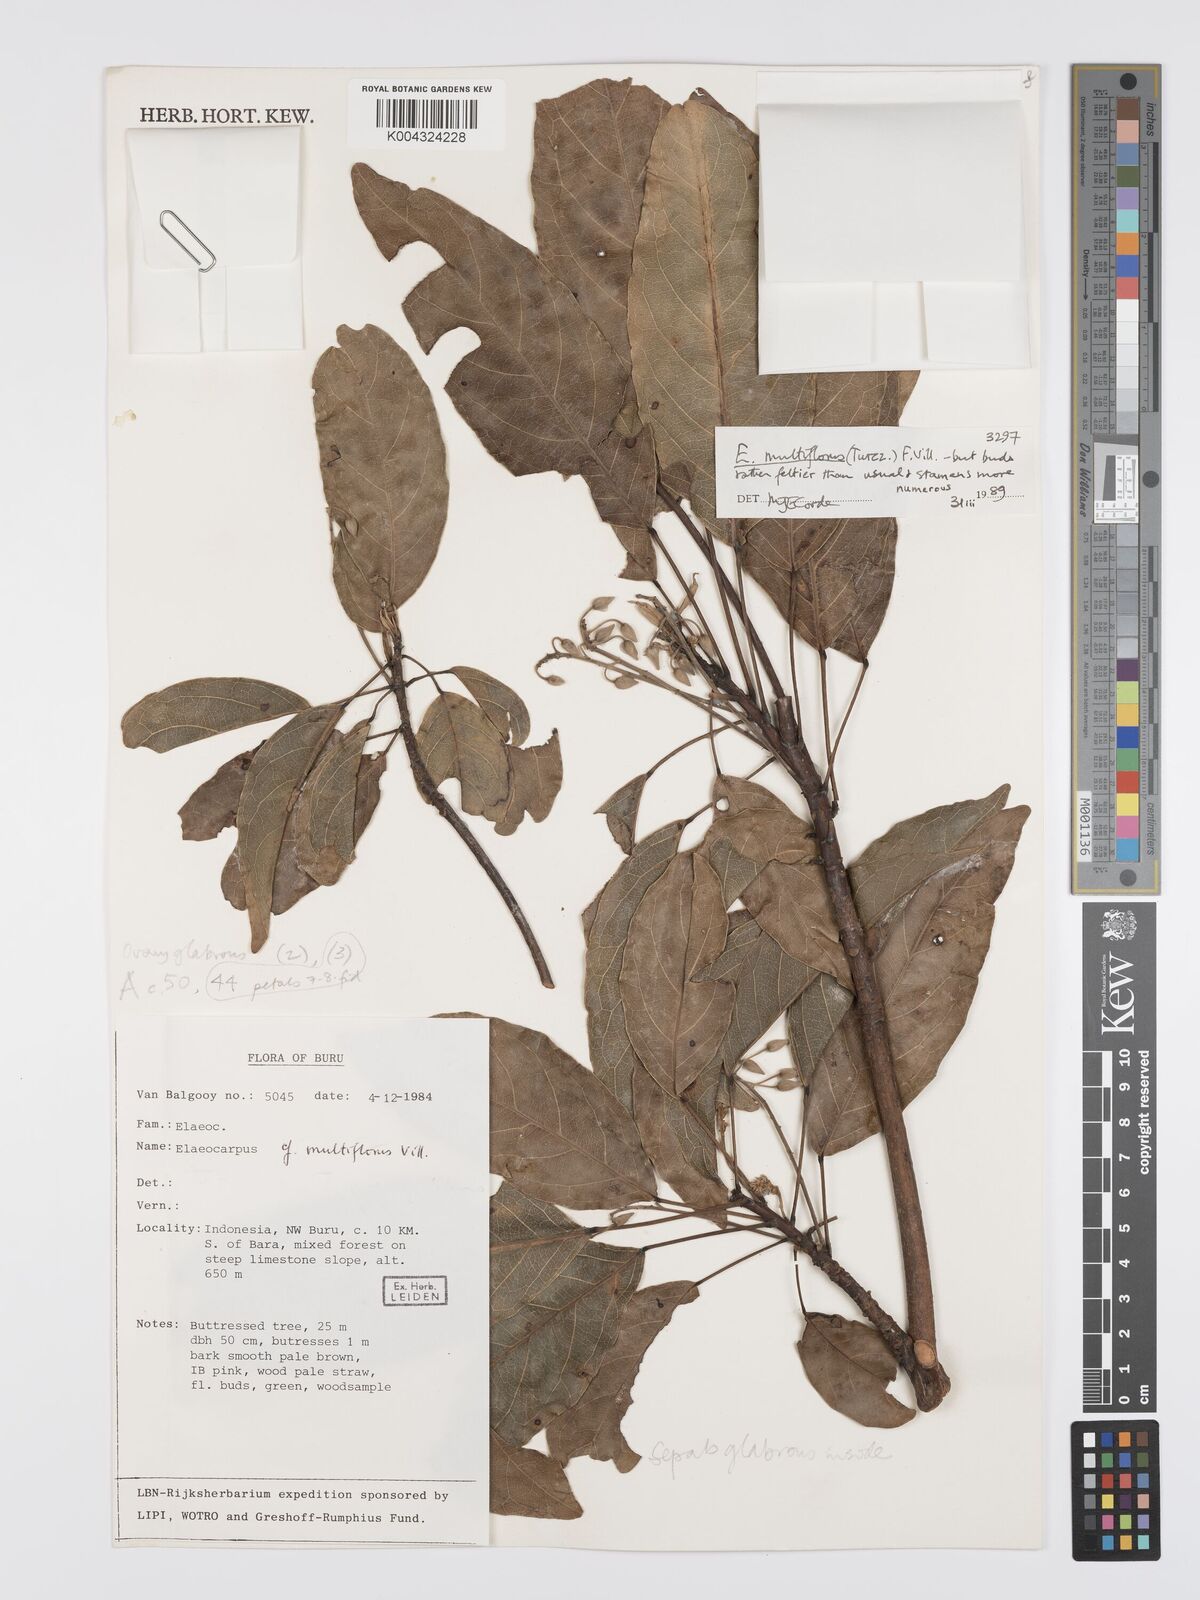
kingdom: Plantae
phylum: Tracheophyta
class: Magnoliopsida
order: Oxalidales
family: Elaeocarpaceae
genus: Elaeocarpus
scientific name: Elaeocarpus multiflorus
